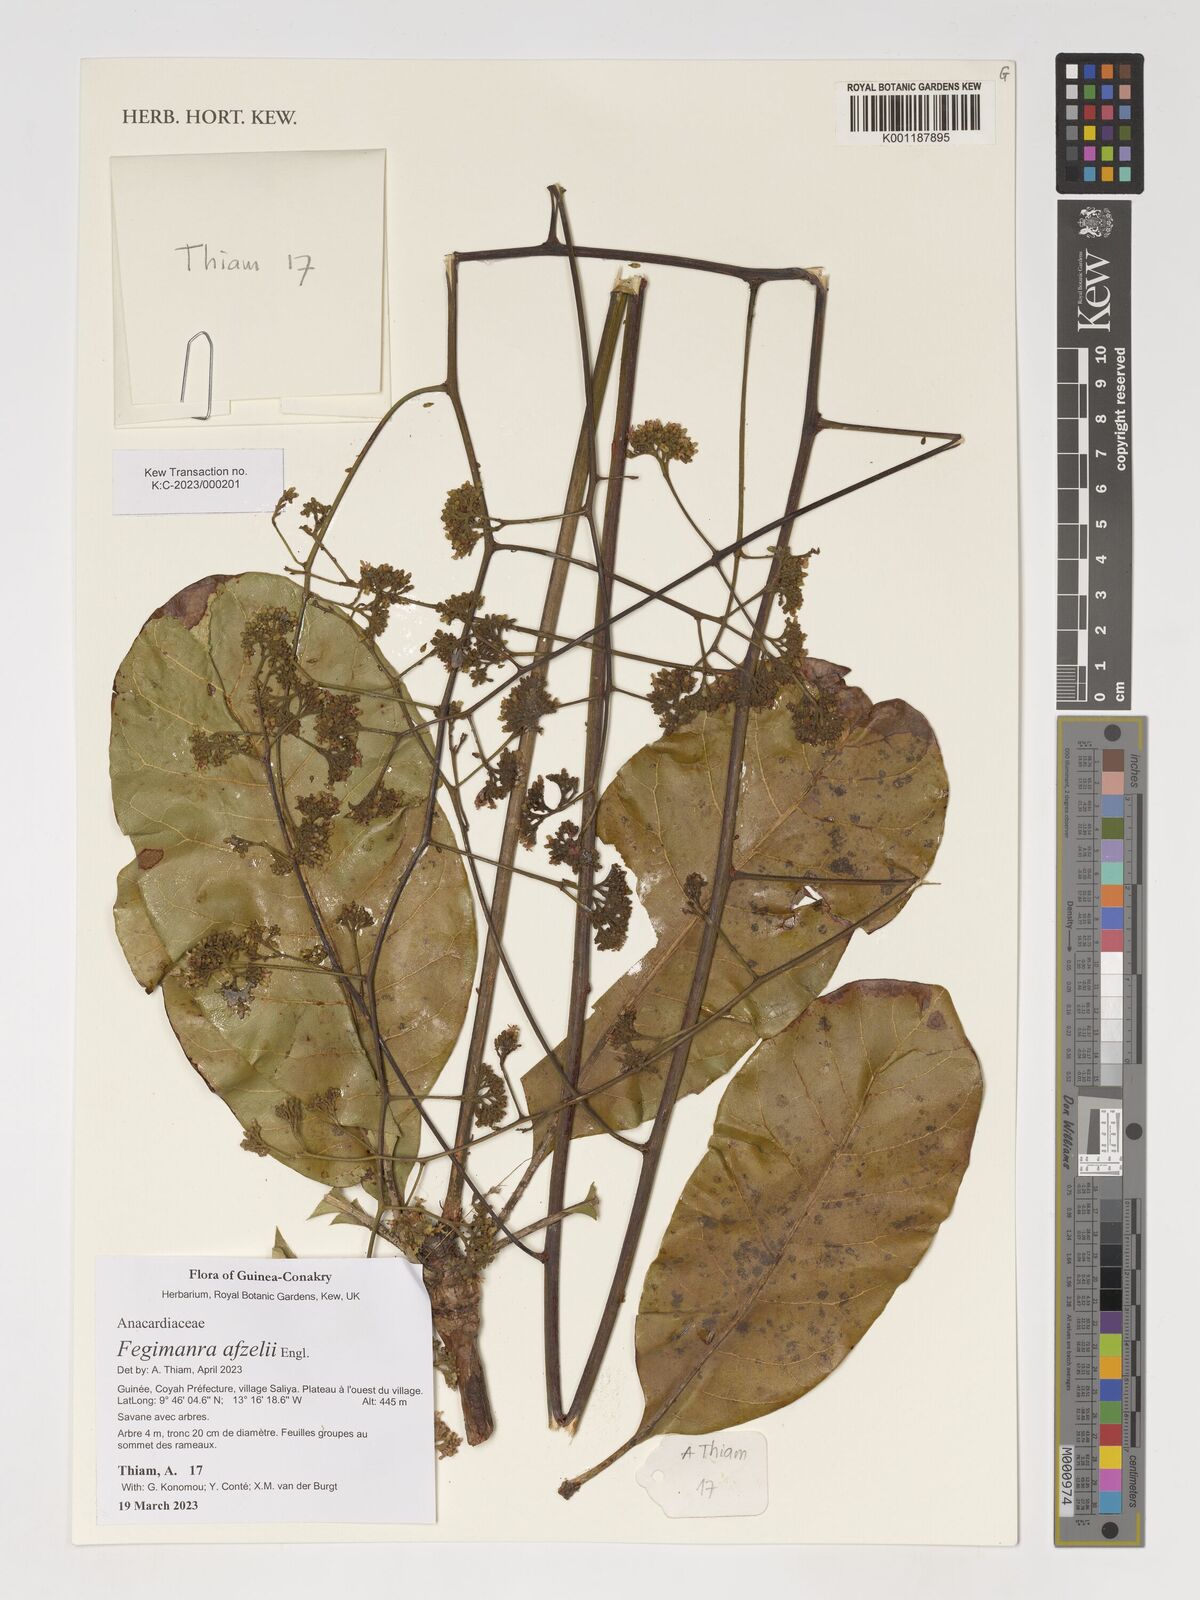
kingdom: Plantae
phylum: Tracheophyta
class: Magnoliopsida
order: Sapindales
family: Anacardiaceae
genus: Fegimanra
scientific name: Fegimanra afzelii
